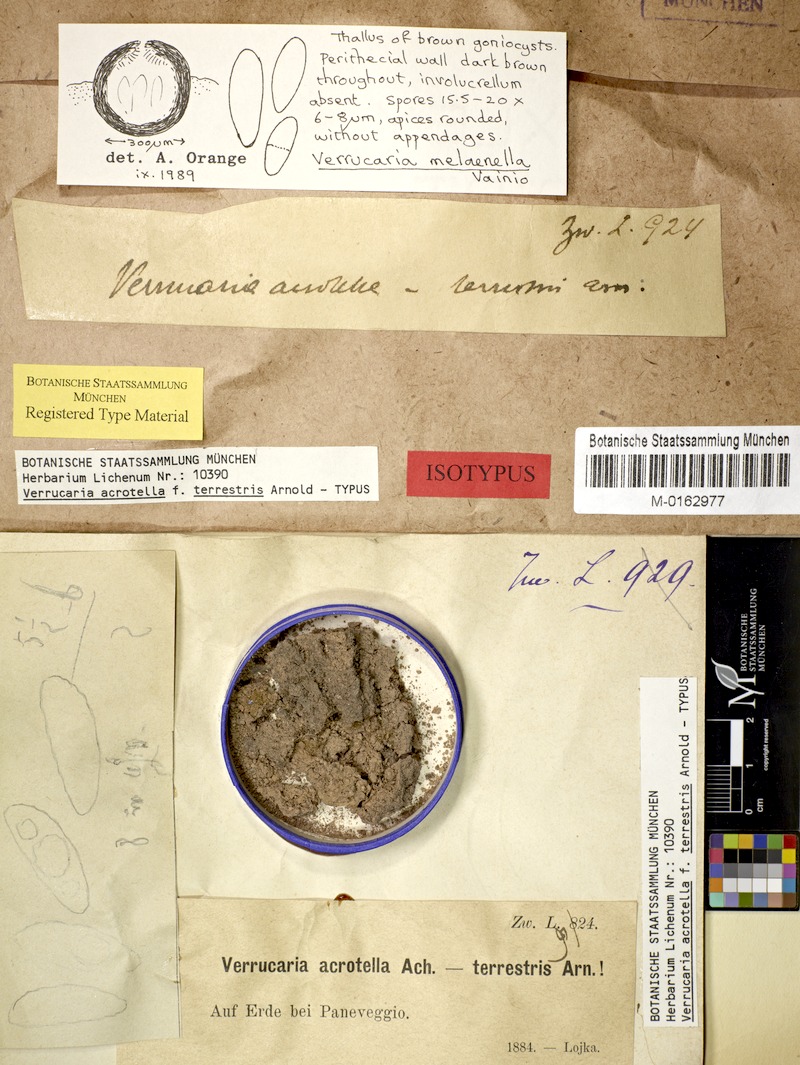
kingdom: Fungi
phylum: Ascomycota
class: Eurotiomycetes
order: Verrucariales
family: Verrucariaceae
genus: Verrucaria
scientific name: Verrucaria xyloxena
